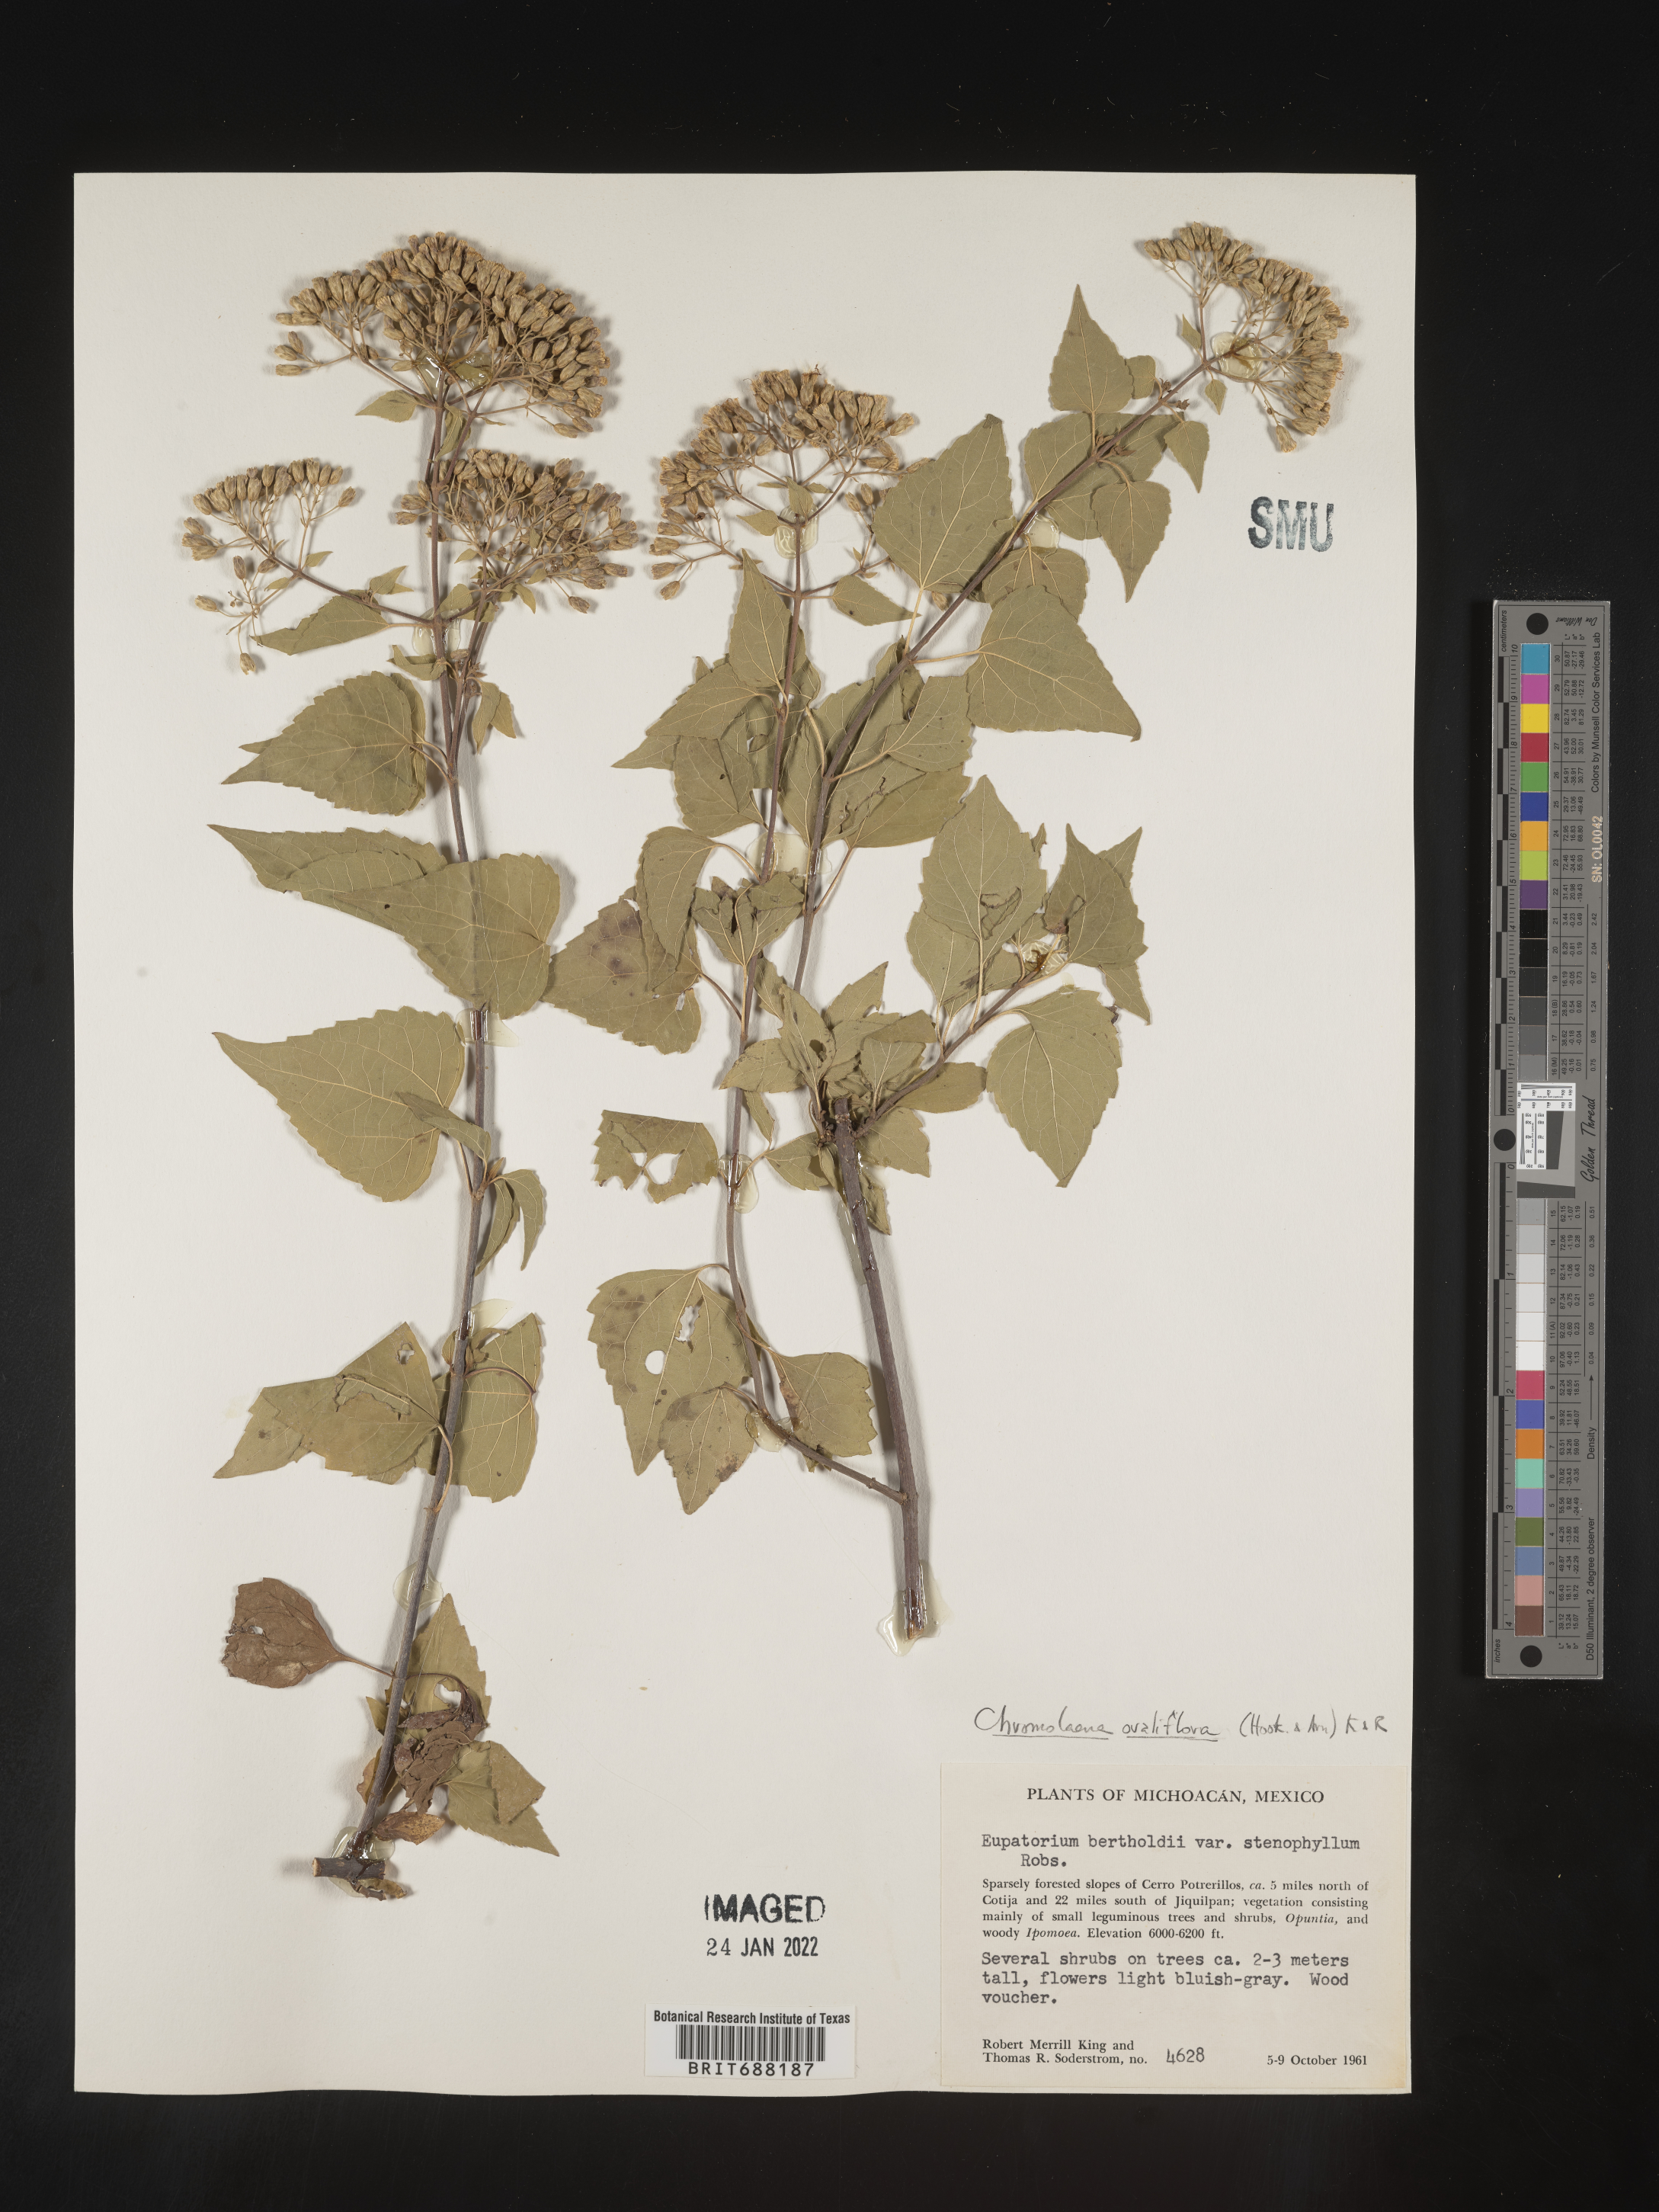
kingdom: Plantae
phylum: Tracheophyta
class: Magnoliopsida
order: Asterales
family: Asteraceae
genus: Chromolaena
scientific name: Chromolaena ovaliflora
